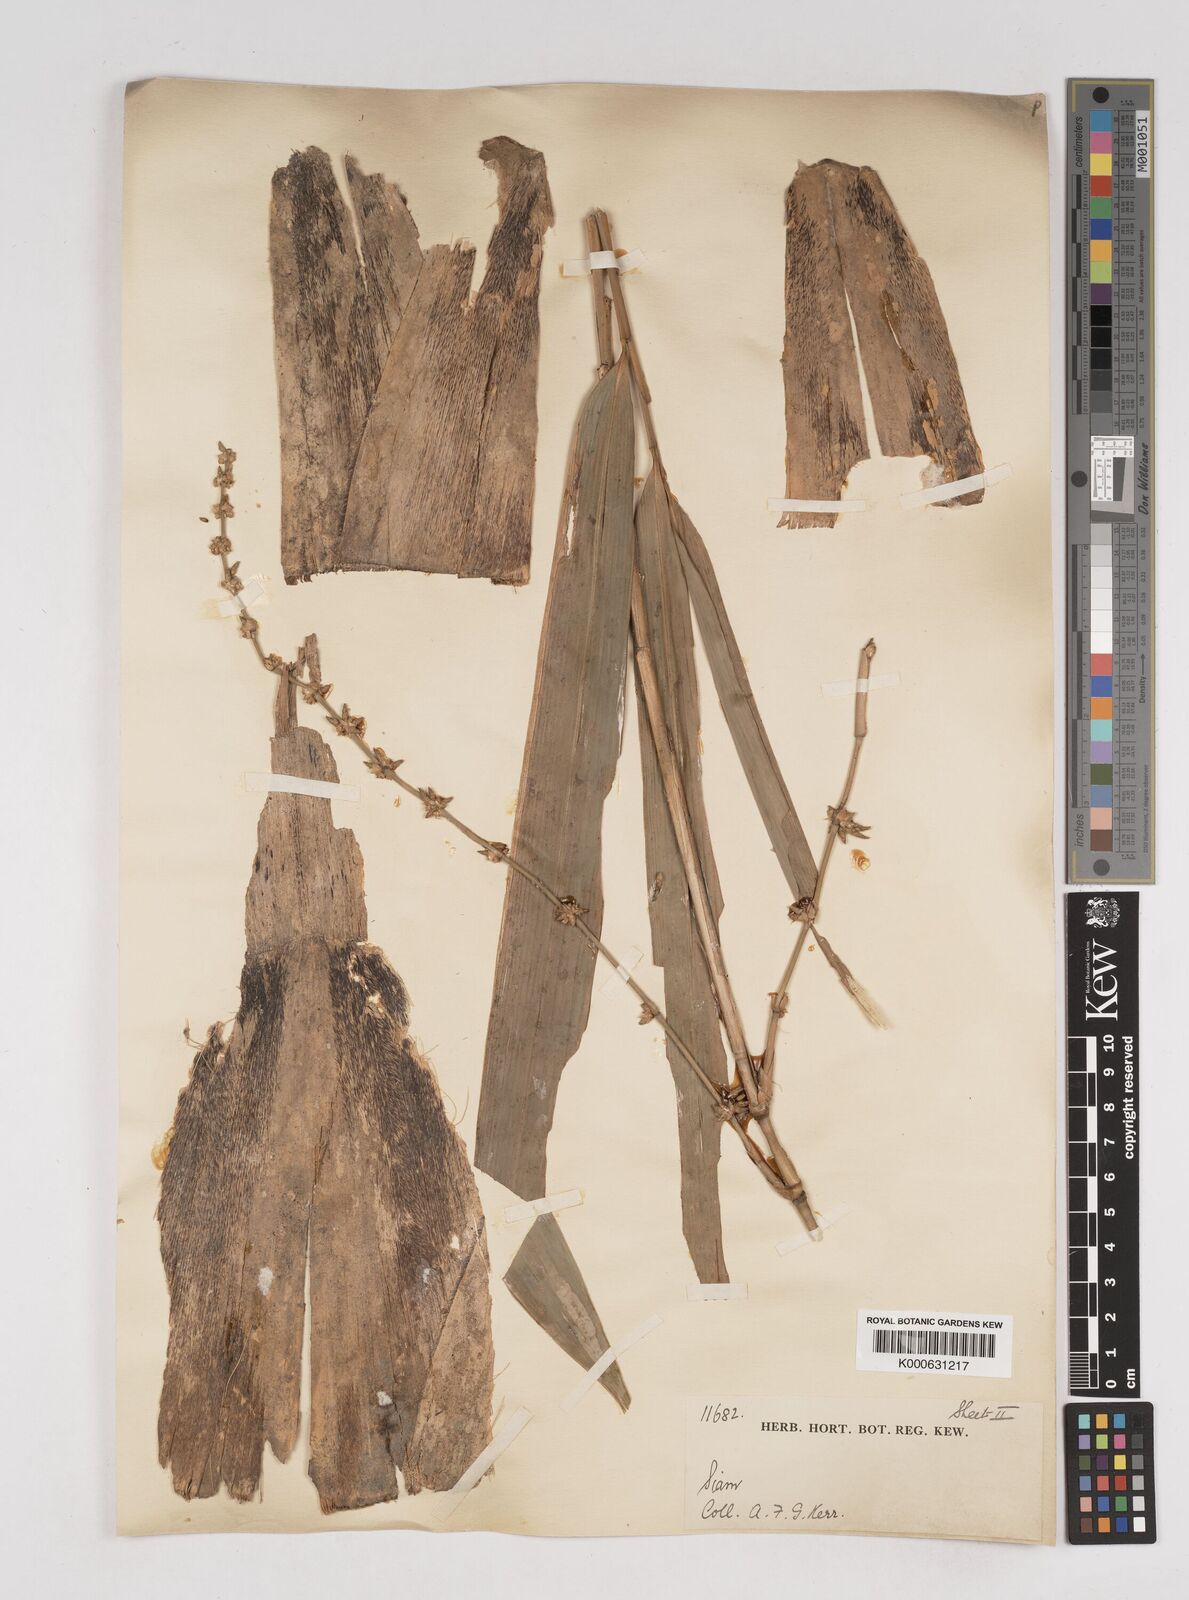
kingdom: Plantae
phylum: Tracheophyta
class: Liliopsida
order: Poales
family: Poaceae
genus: Gigantochloa
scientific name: Gigantochloa
